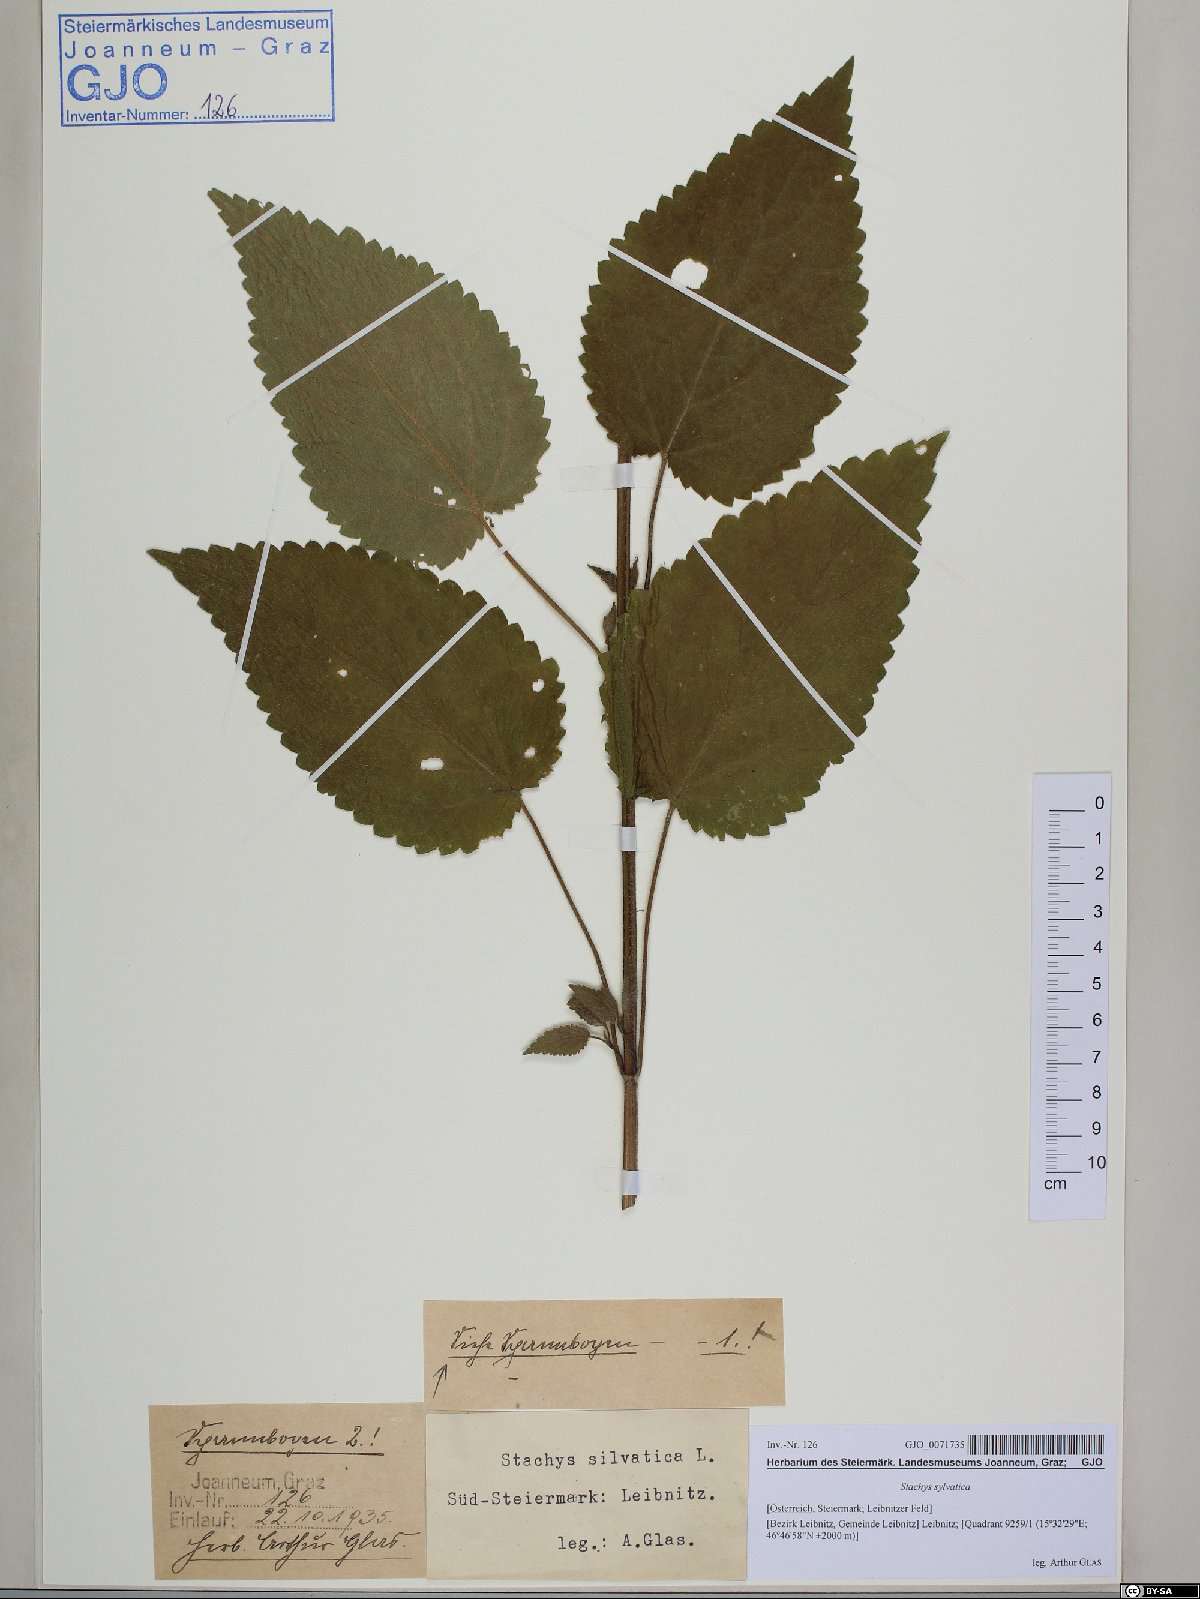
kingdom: Plantae
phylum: Tracheophyta
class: Magnoliopsida
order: Lamiales
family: Lamiaceae
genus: Stachys
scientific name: Stachys sylvatica
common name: Hedge woundwort
